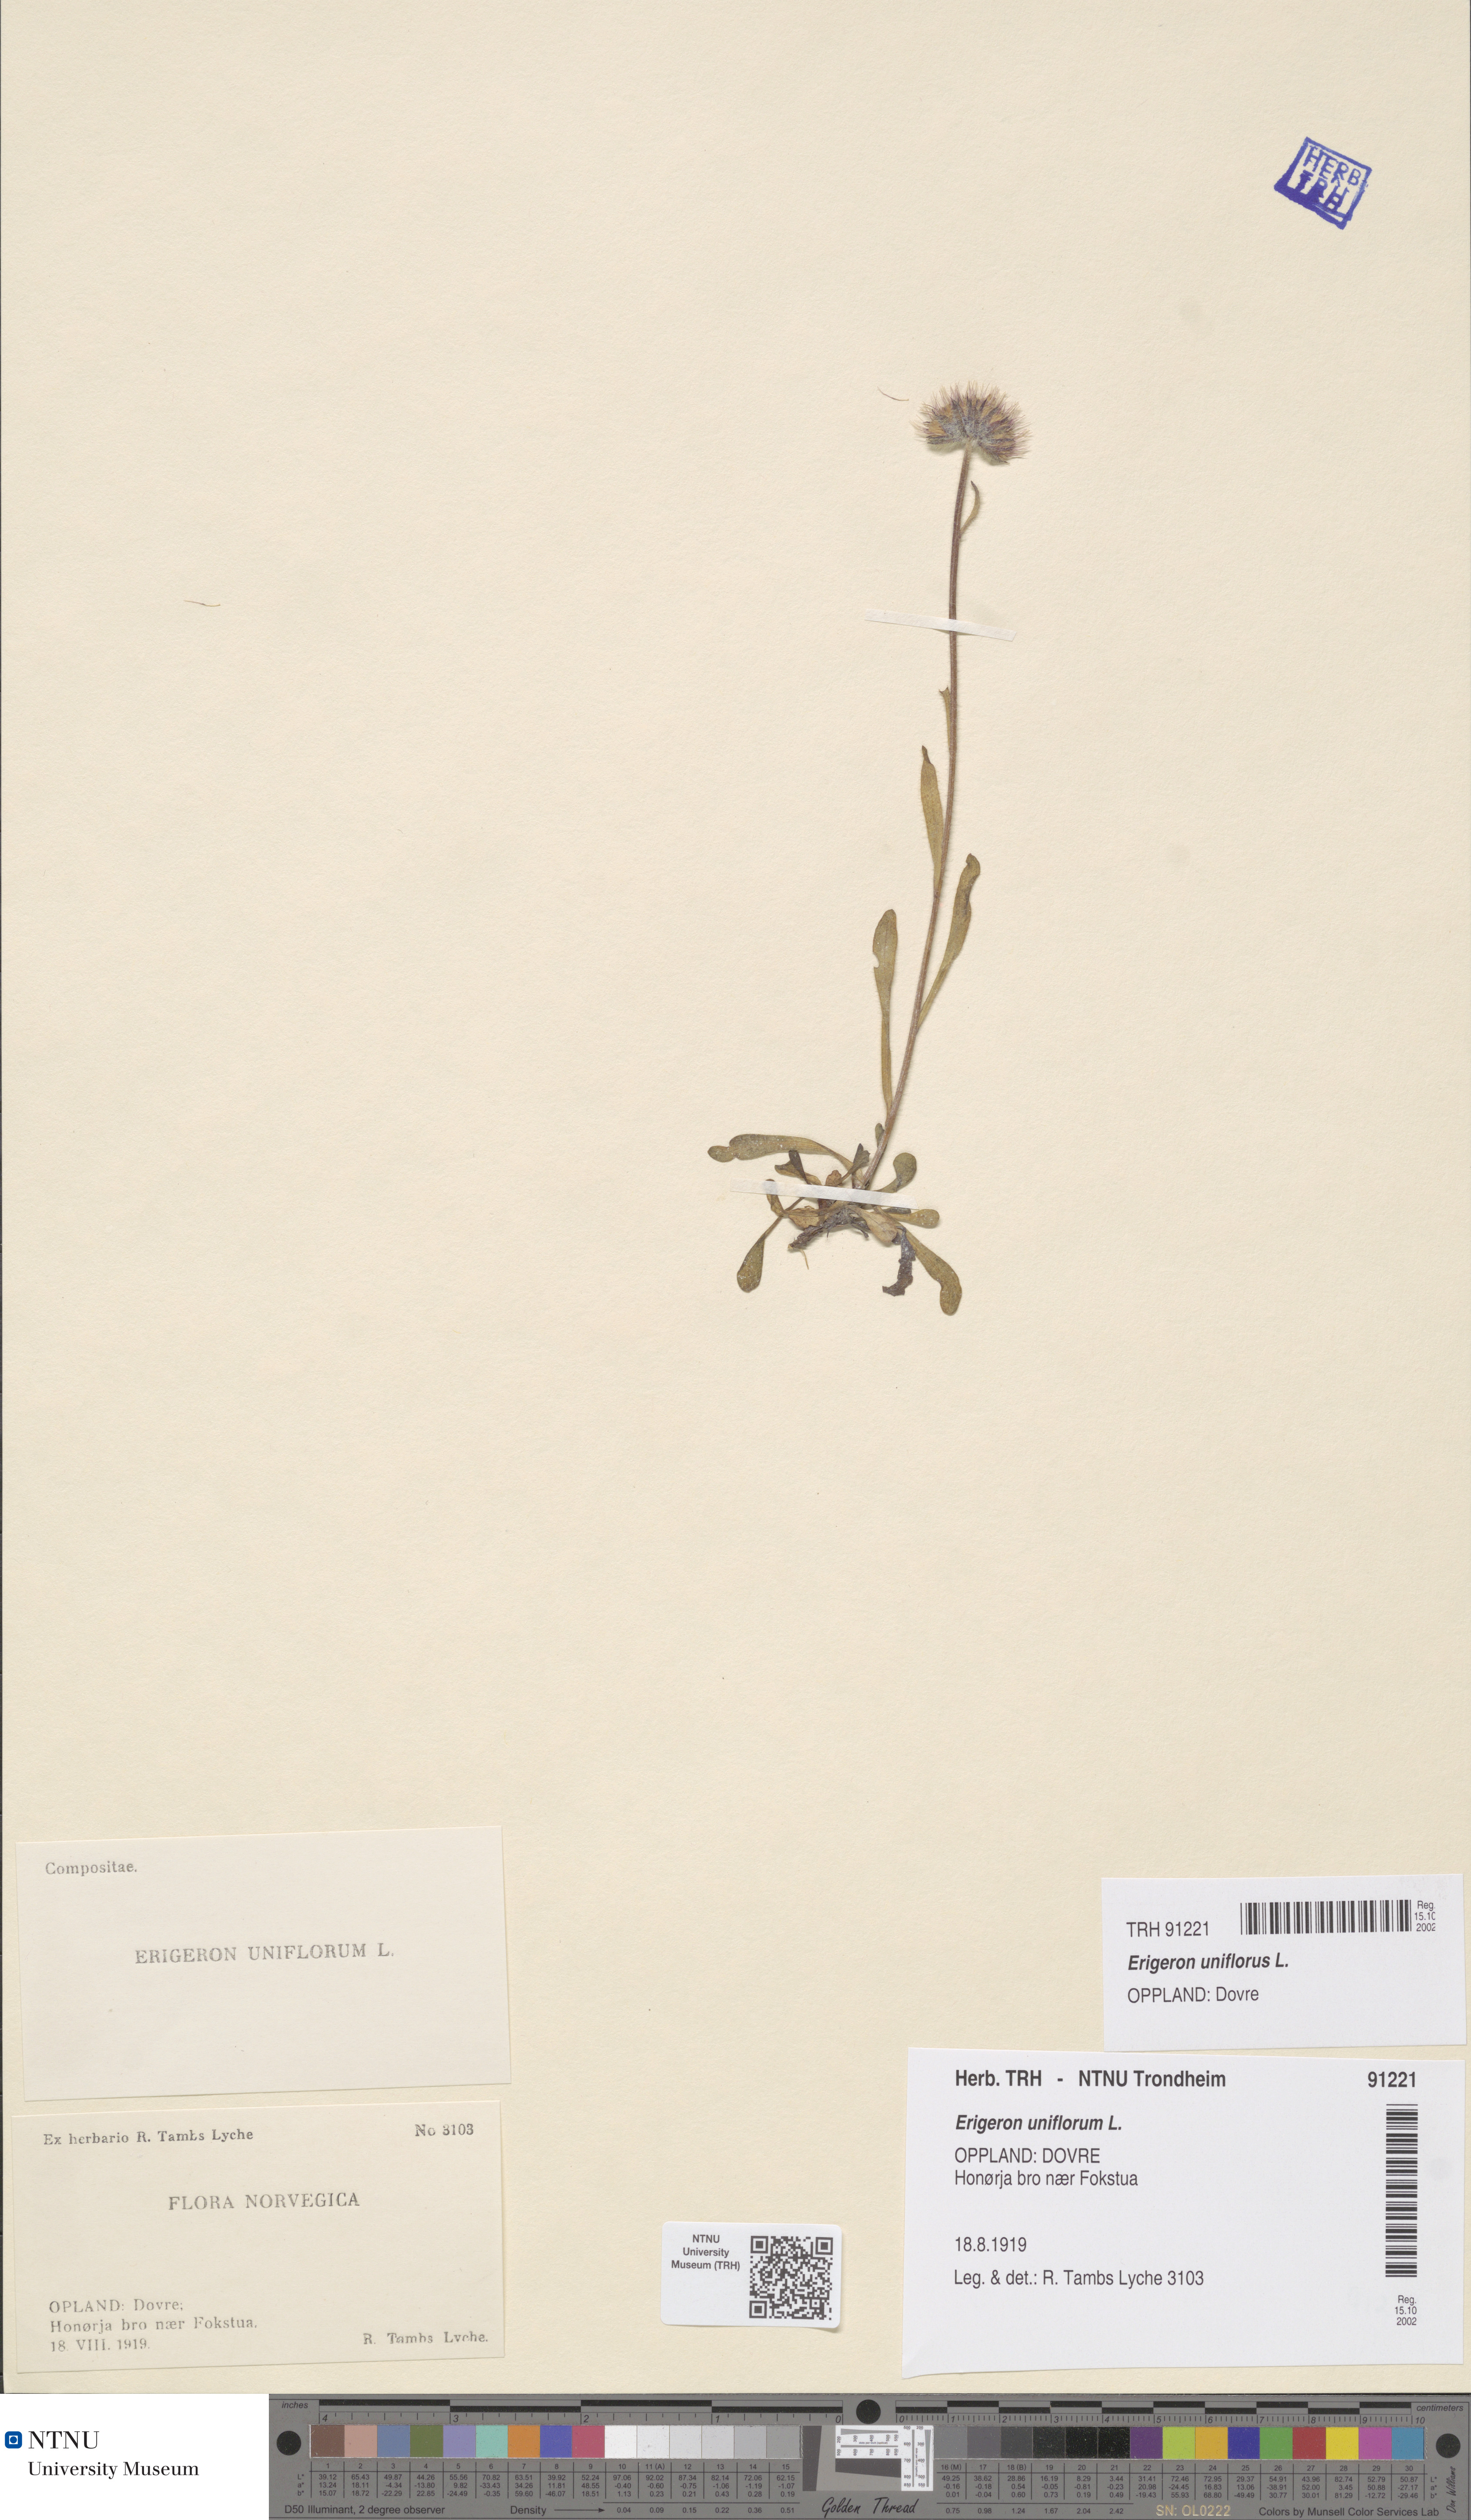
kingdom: Plantae
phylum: Tracheophyta
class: Magnoliopsida
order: Asterales
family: Asteraceae
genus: Erigeron
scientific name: Erigeron uniflorus
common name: Northern daisy
